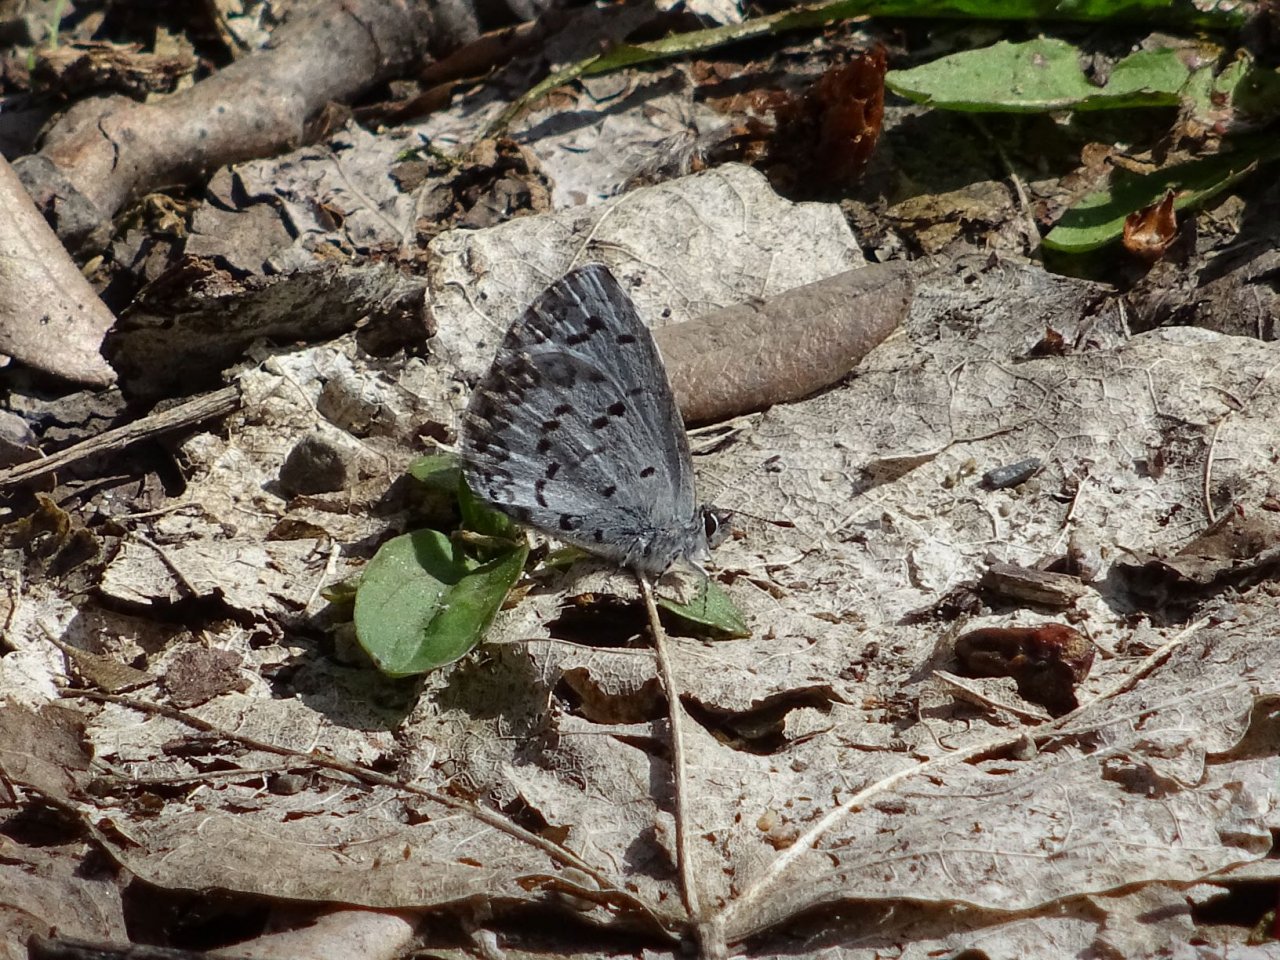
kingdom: Animalia
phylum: Arthropoda
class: Insecta
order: Lepidoptera
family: Lycaenidae
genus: Celastrina
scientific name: Celastrina
